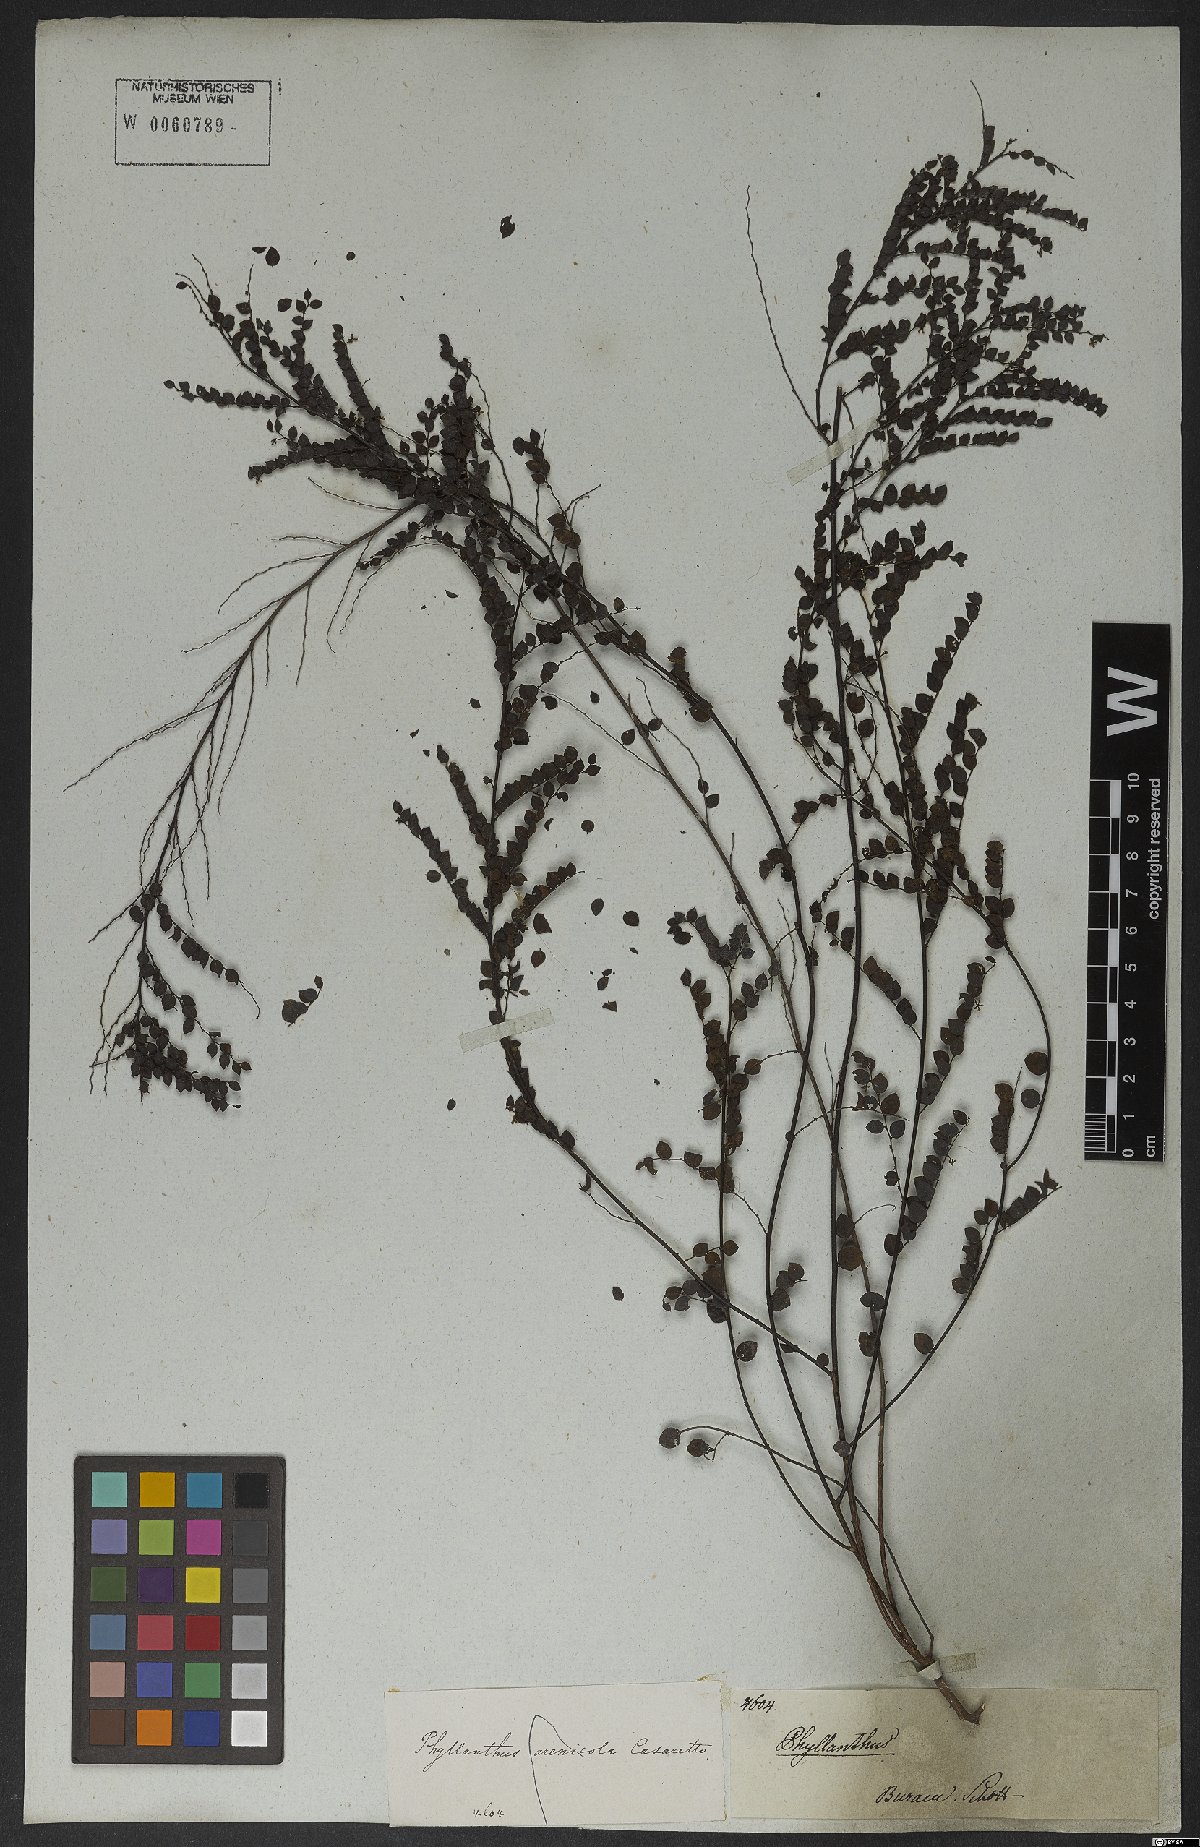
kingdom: Plantae
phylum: Tracheophyta
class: Magnoliopsida
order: Malpighiales
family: Phyllanthaceae
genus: Phyllanthus
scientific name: Phyllanthus arenicola
